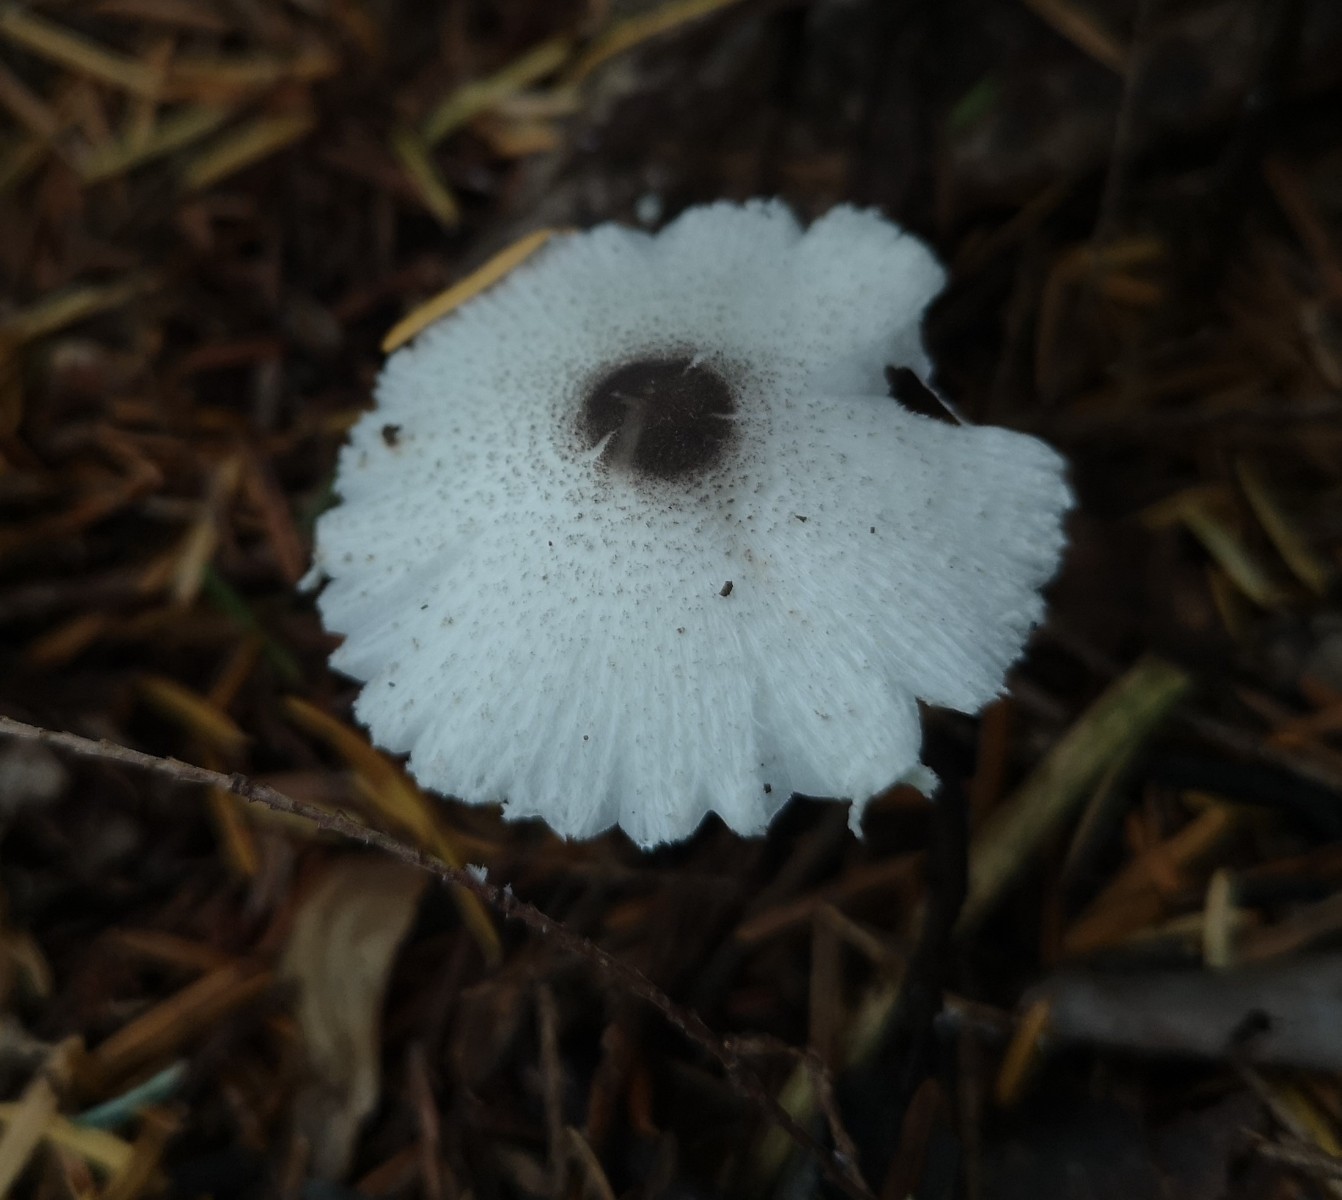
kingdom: Fungi
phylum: Basidiomycota
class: Agaricomycetes
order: Agaricales
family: Agaricaceae
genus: Leucocoprinus
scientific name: Leucocoprinus brebissonii
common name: gråsort silkehat
